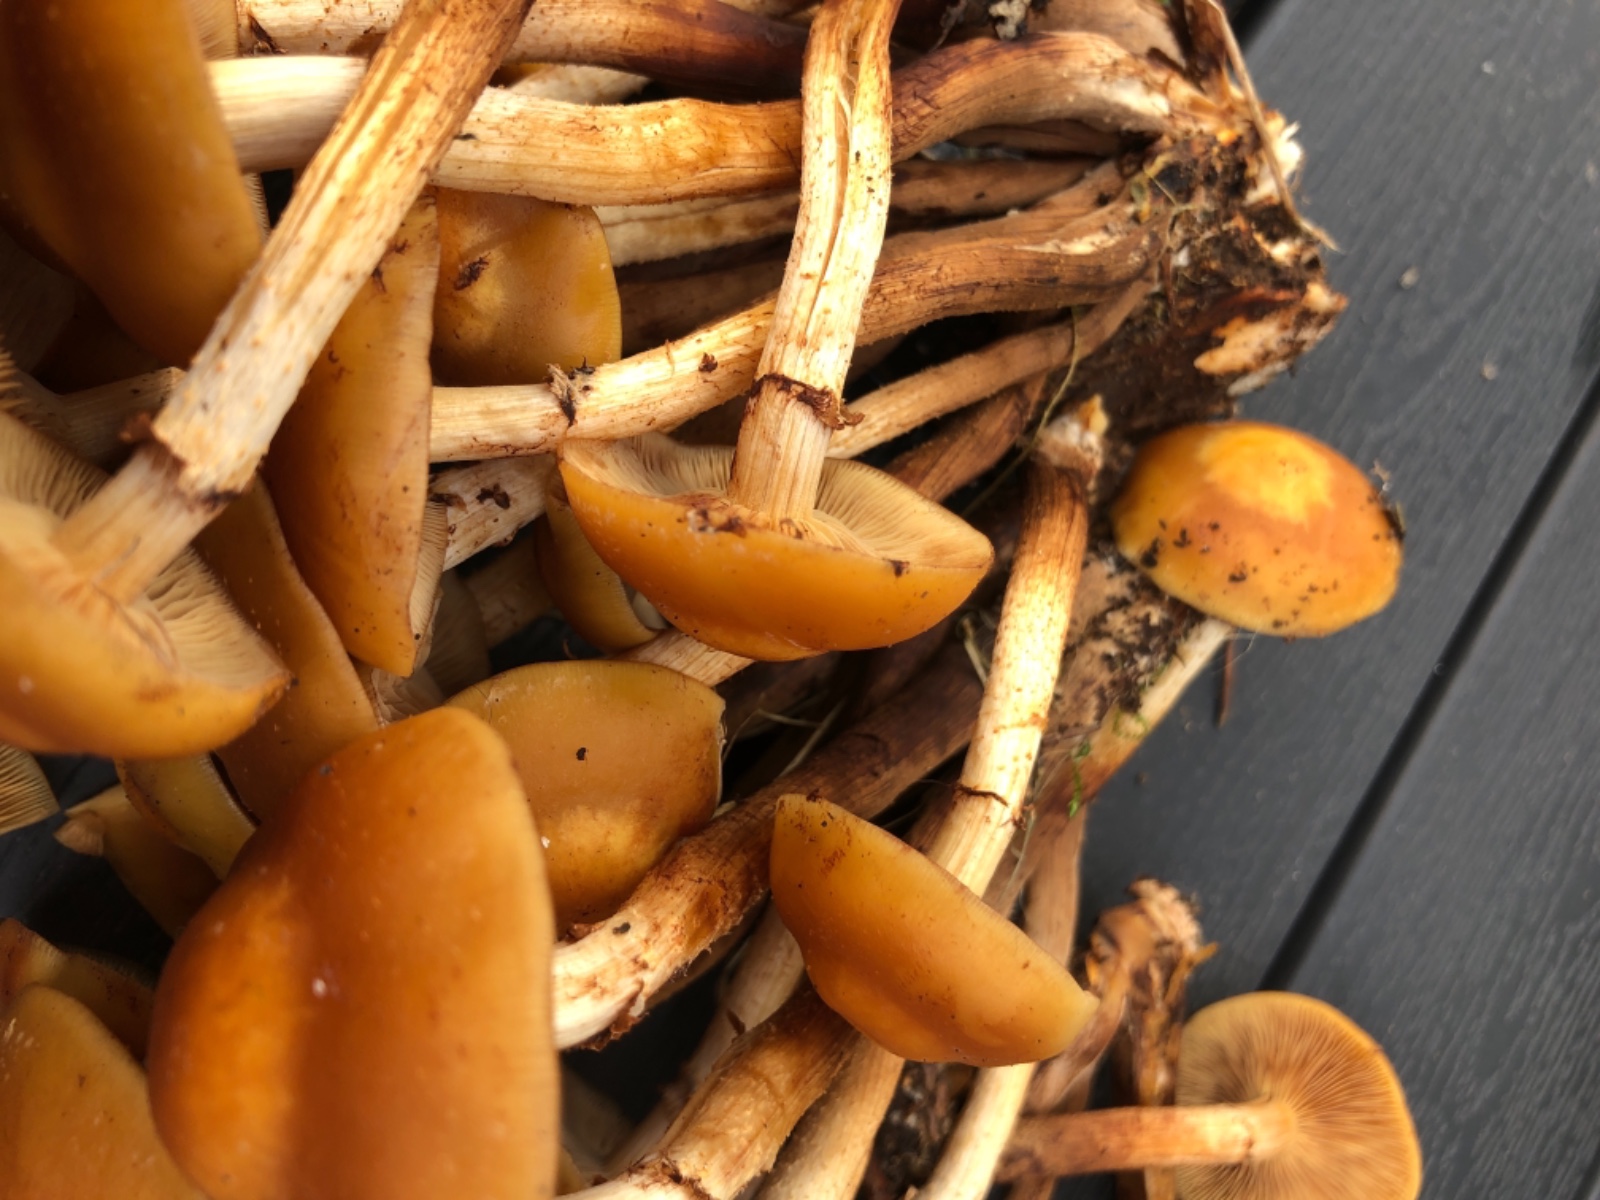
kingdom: Fungi
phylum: Basidiomycota
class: Agaricomycetes
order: Agaricales
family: Strophariaceae
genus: Kuehneromyces
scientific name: Kuehneromyces mutabilis
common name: foranderlig skælhat
